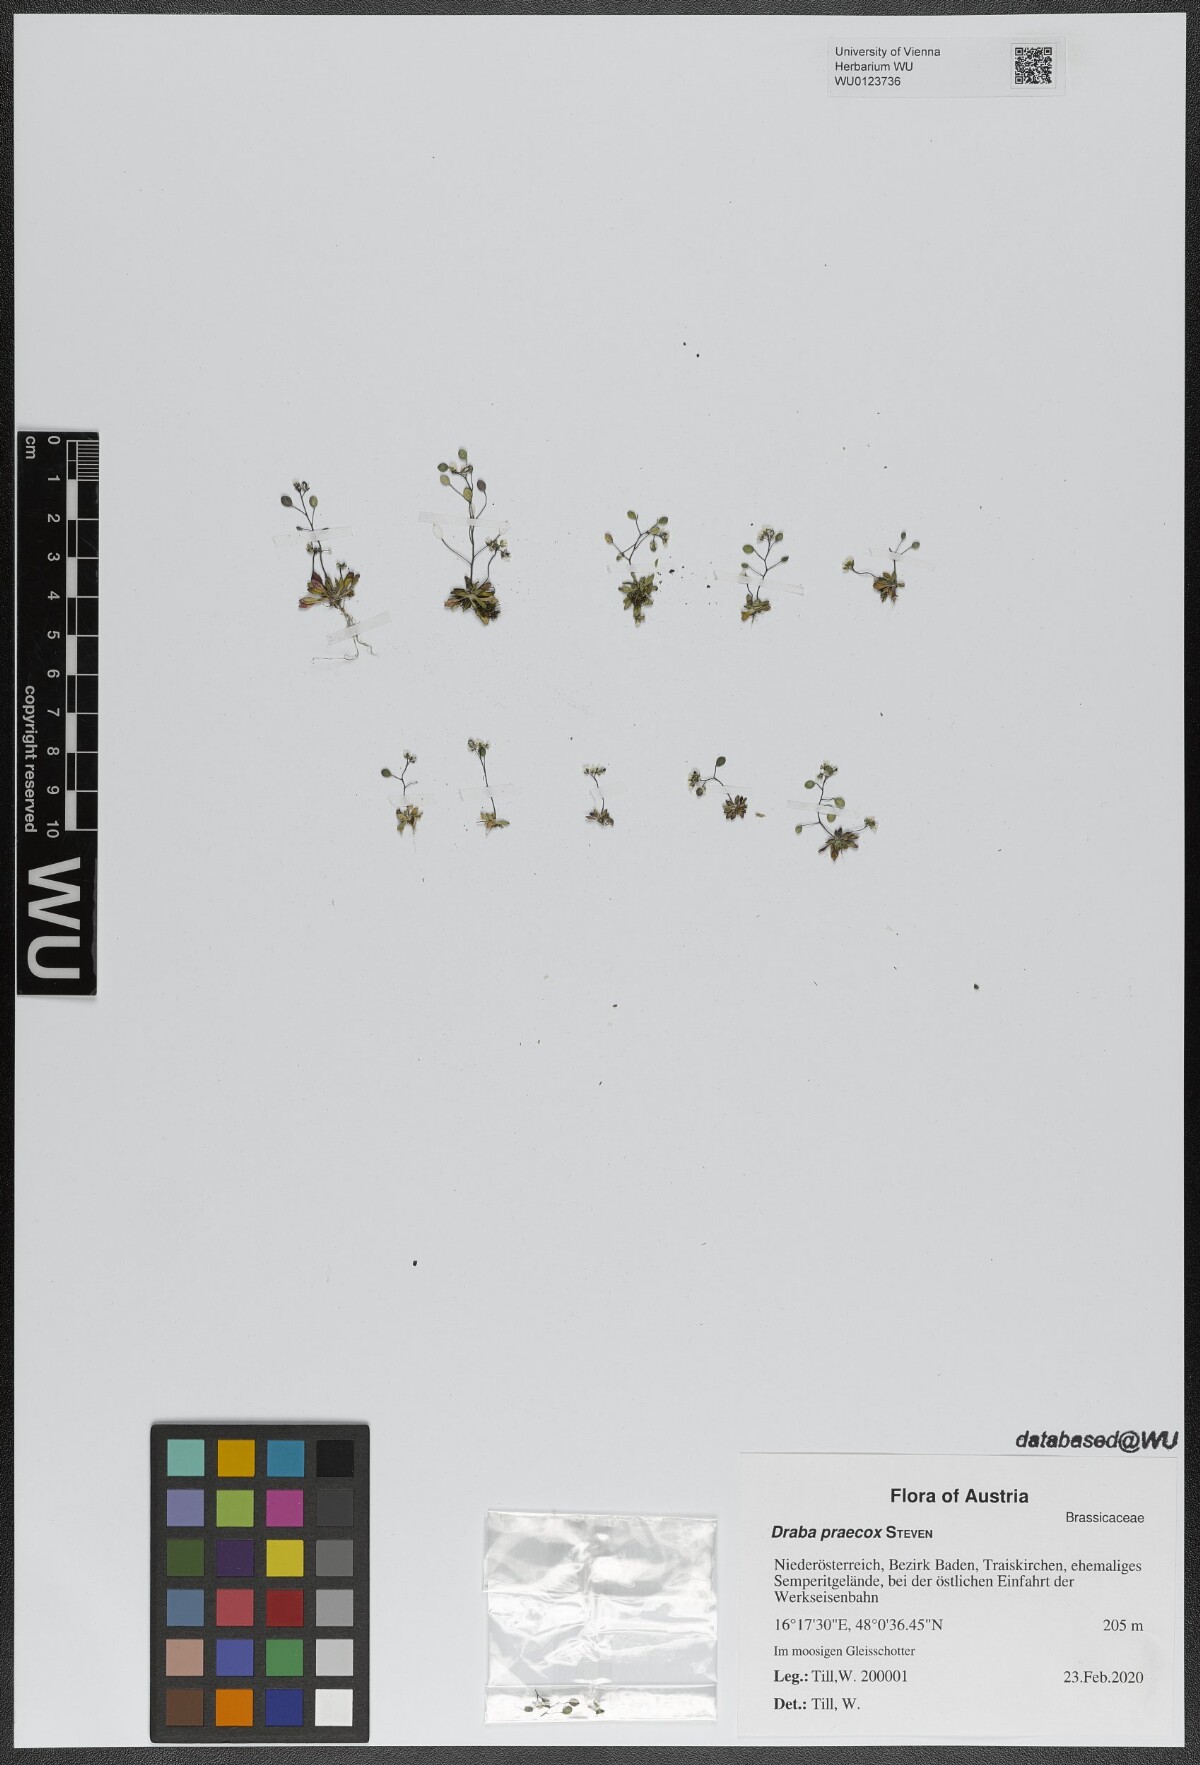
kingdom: Plantae
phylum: Tracheophyta
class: Magnoliopsida
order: Brassicales
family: Brassicaceae
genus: Draba
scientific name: Draba verna
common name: Spring draba
